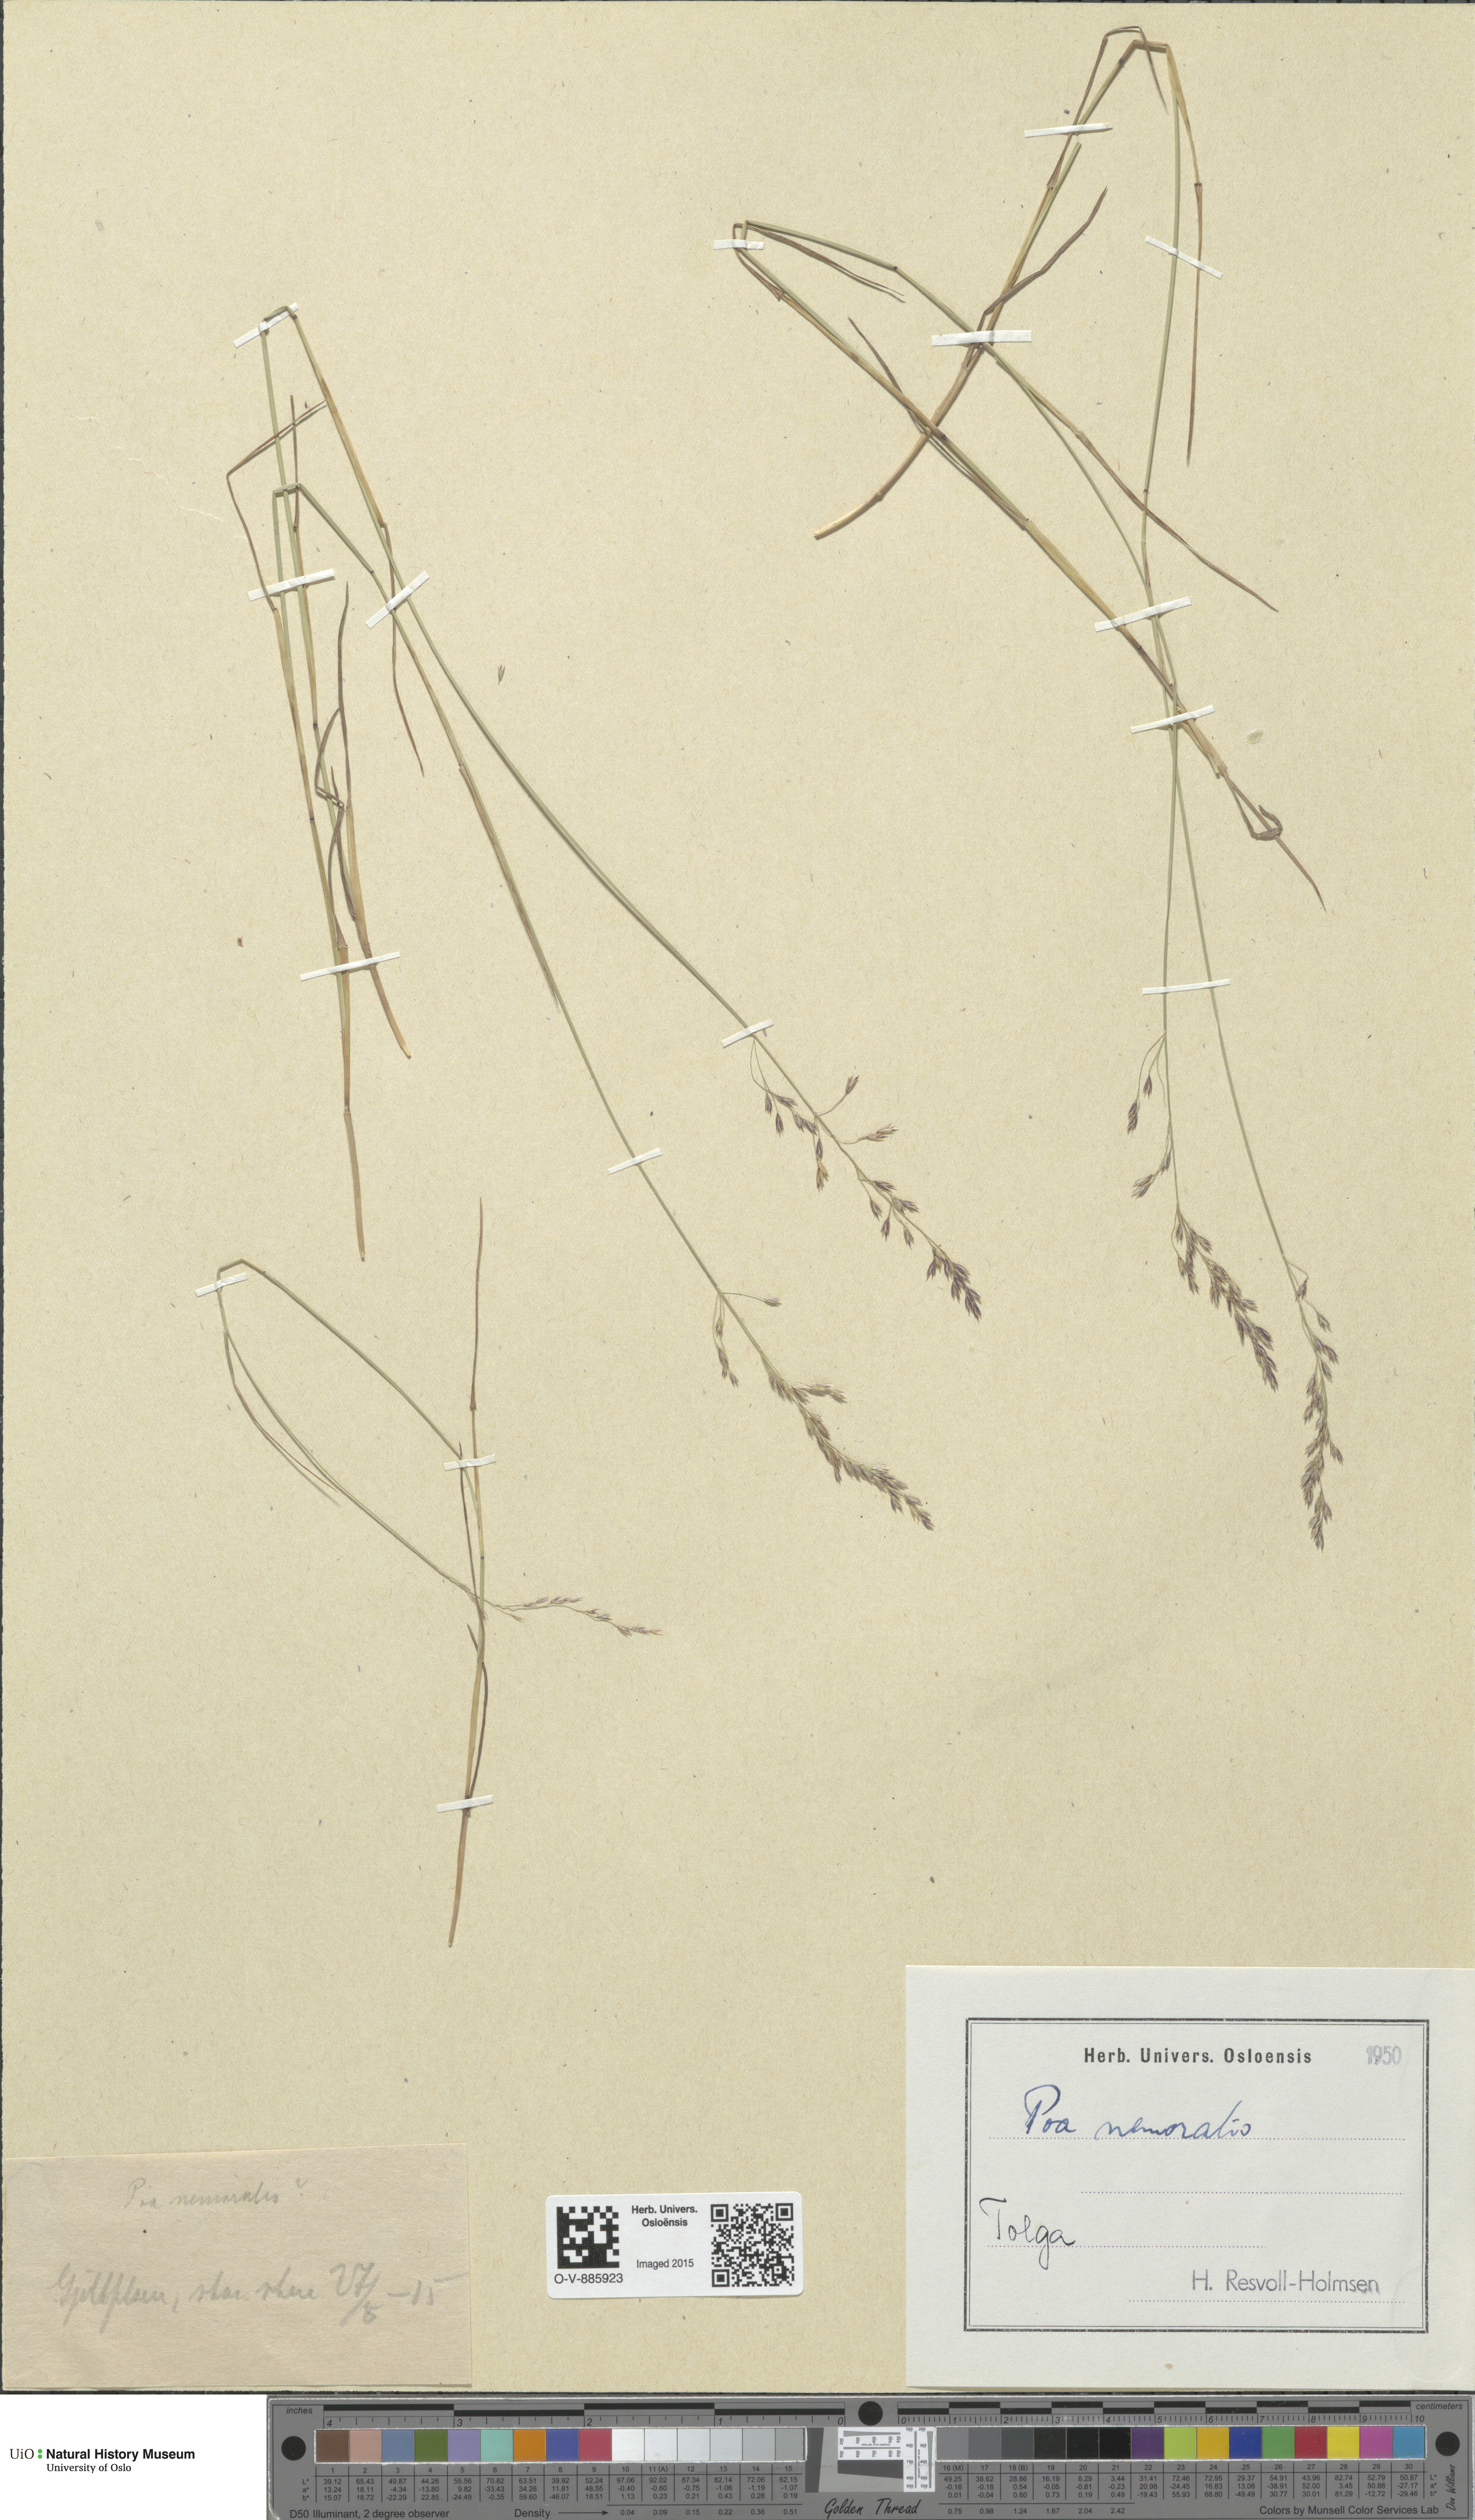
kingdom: Plantae
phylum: Tracheophyta
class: Liliopsida
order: Poales
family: Poaceae
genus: Poa
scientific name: Poa nemoralis
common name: Wood bluegrass
